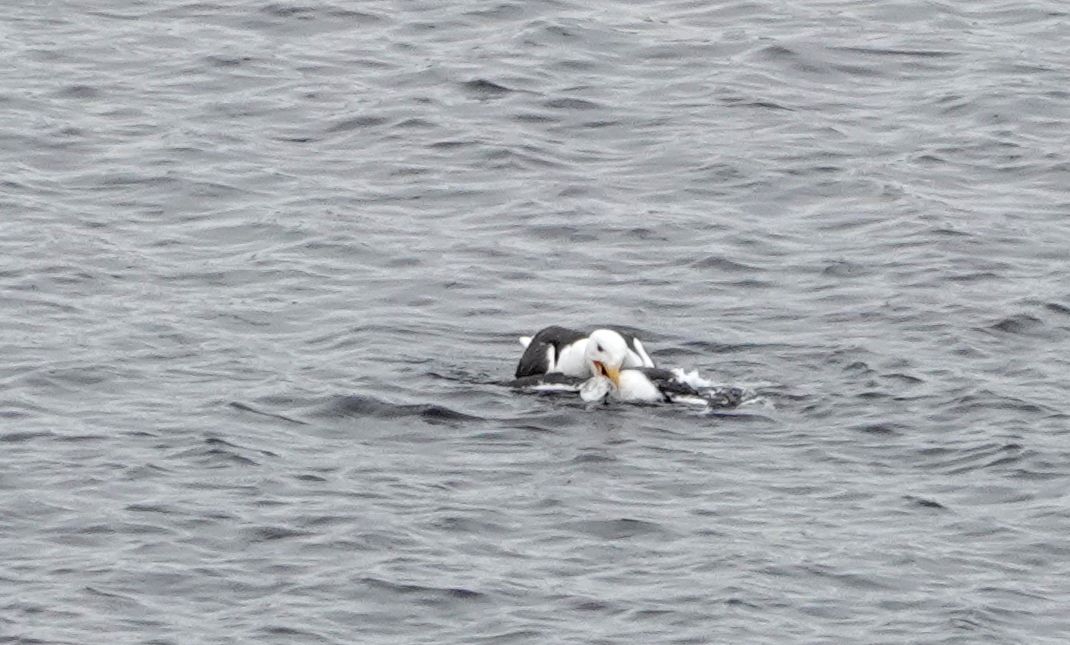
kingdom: Animalia
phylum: Chordata
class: Aves
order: Charadriiformes
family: Laridae
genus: Larus
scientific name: Larus marinus
